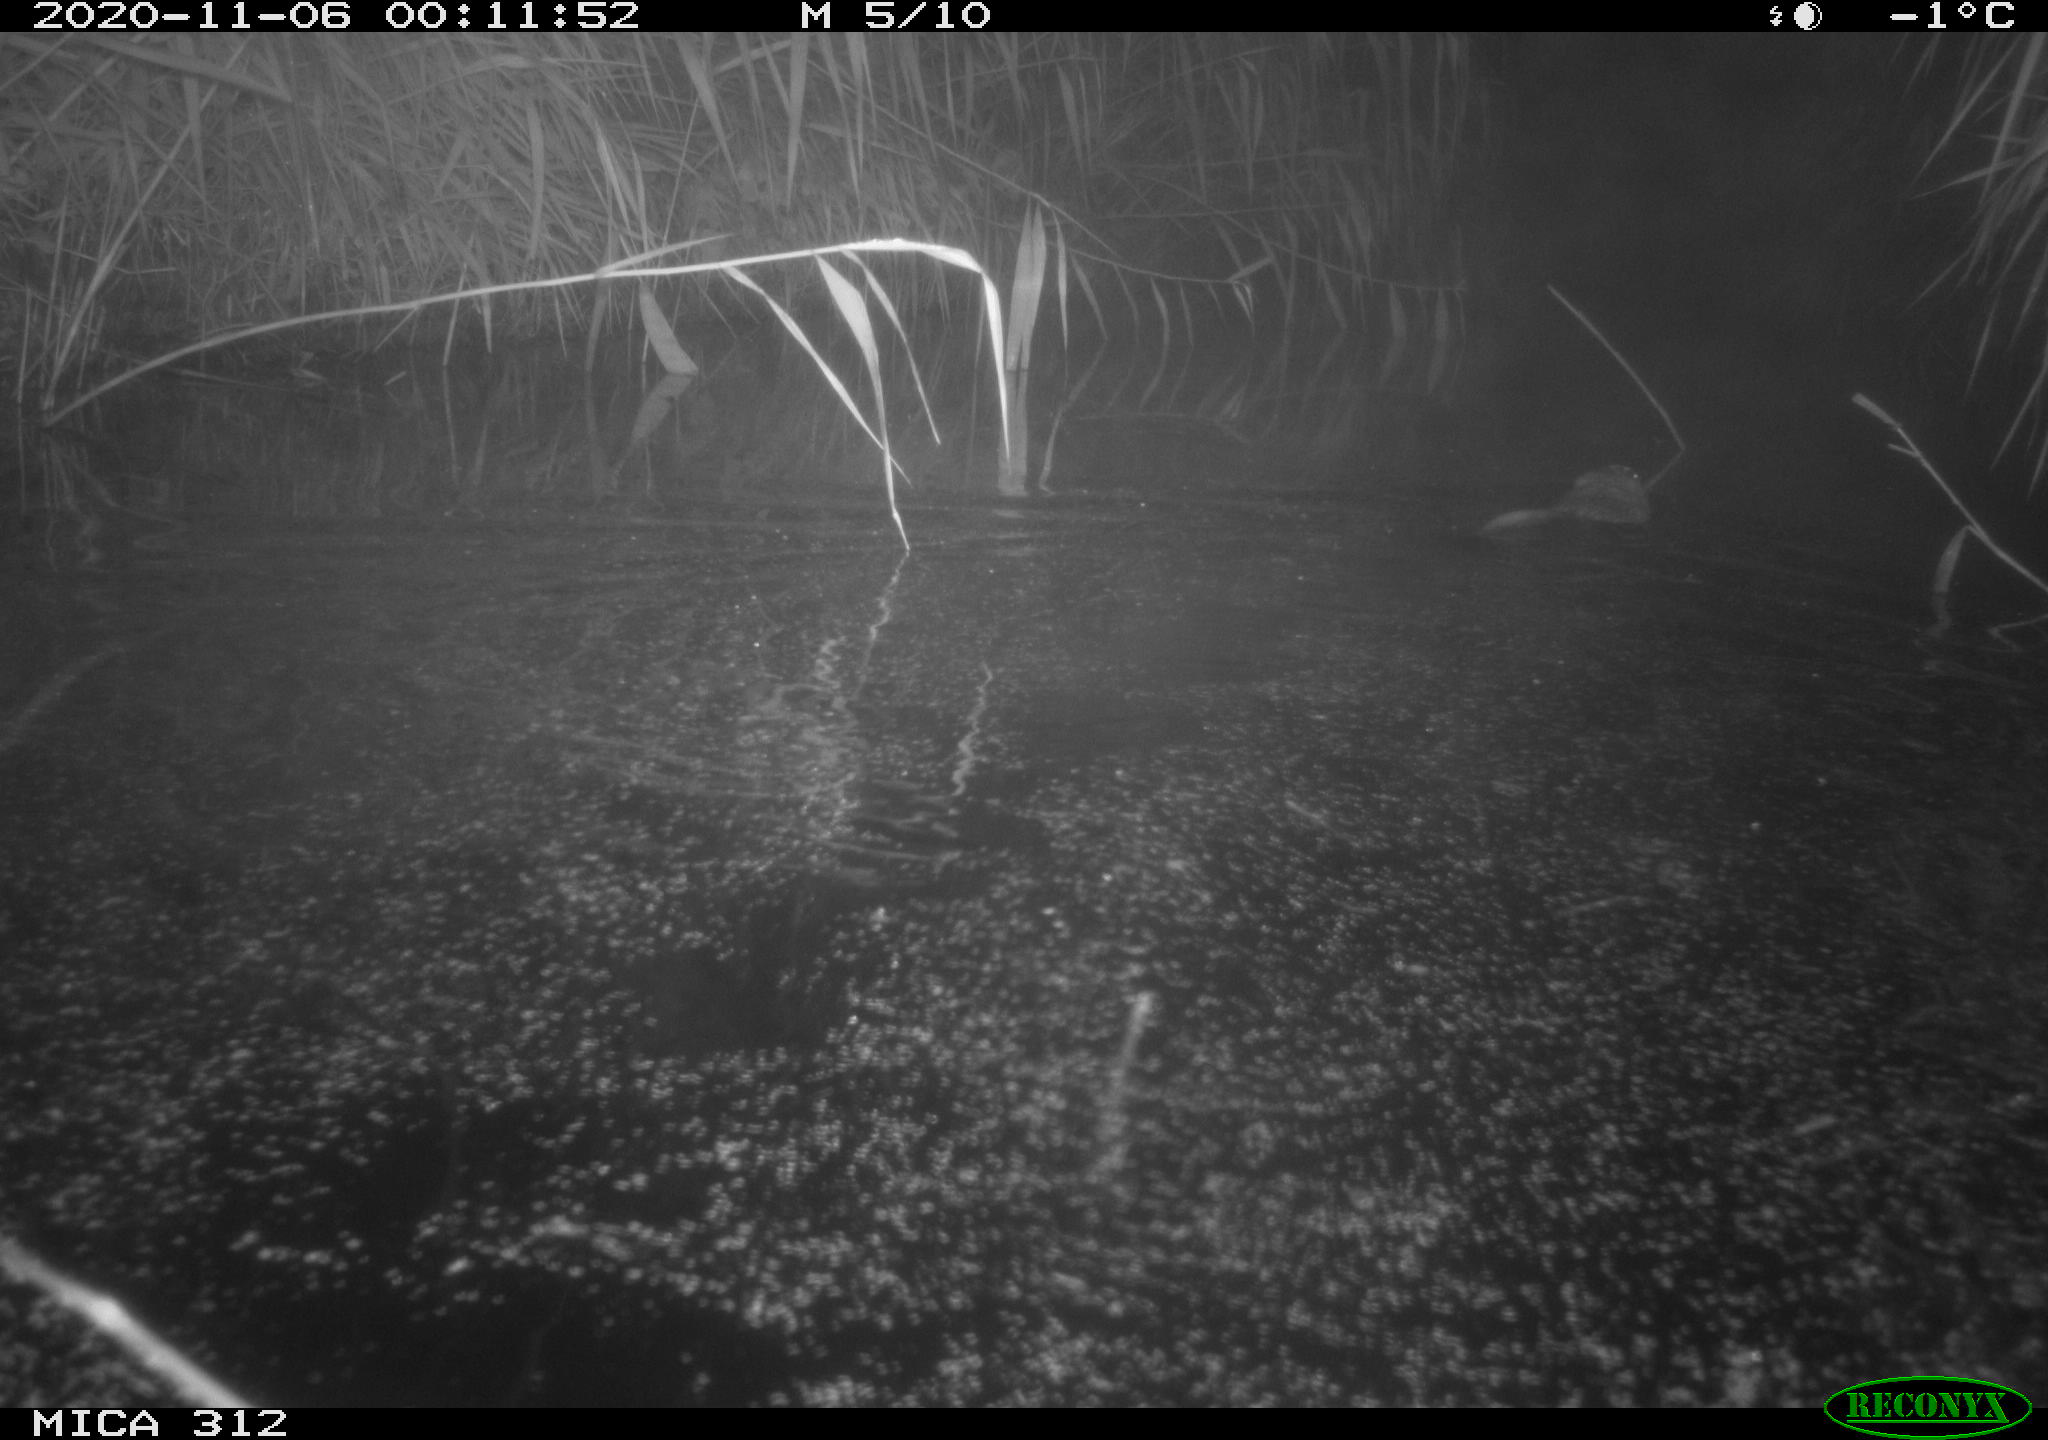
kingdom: Animalia
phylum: Chordata
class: Mammalia
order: Rodentia
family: Cricetidae
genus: Ondatra
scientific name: Ondatra zibethicus
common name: Muskrat
